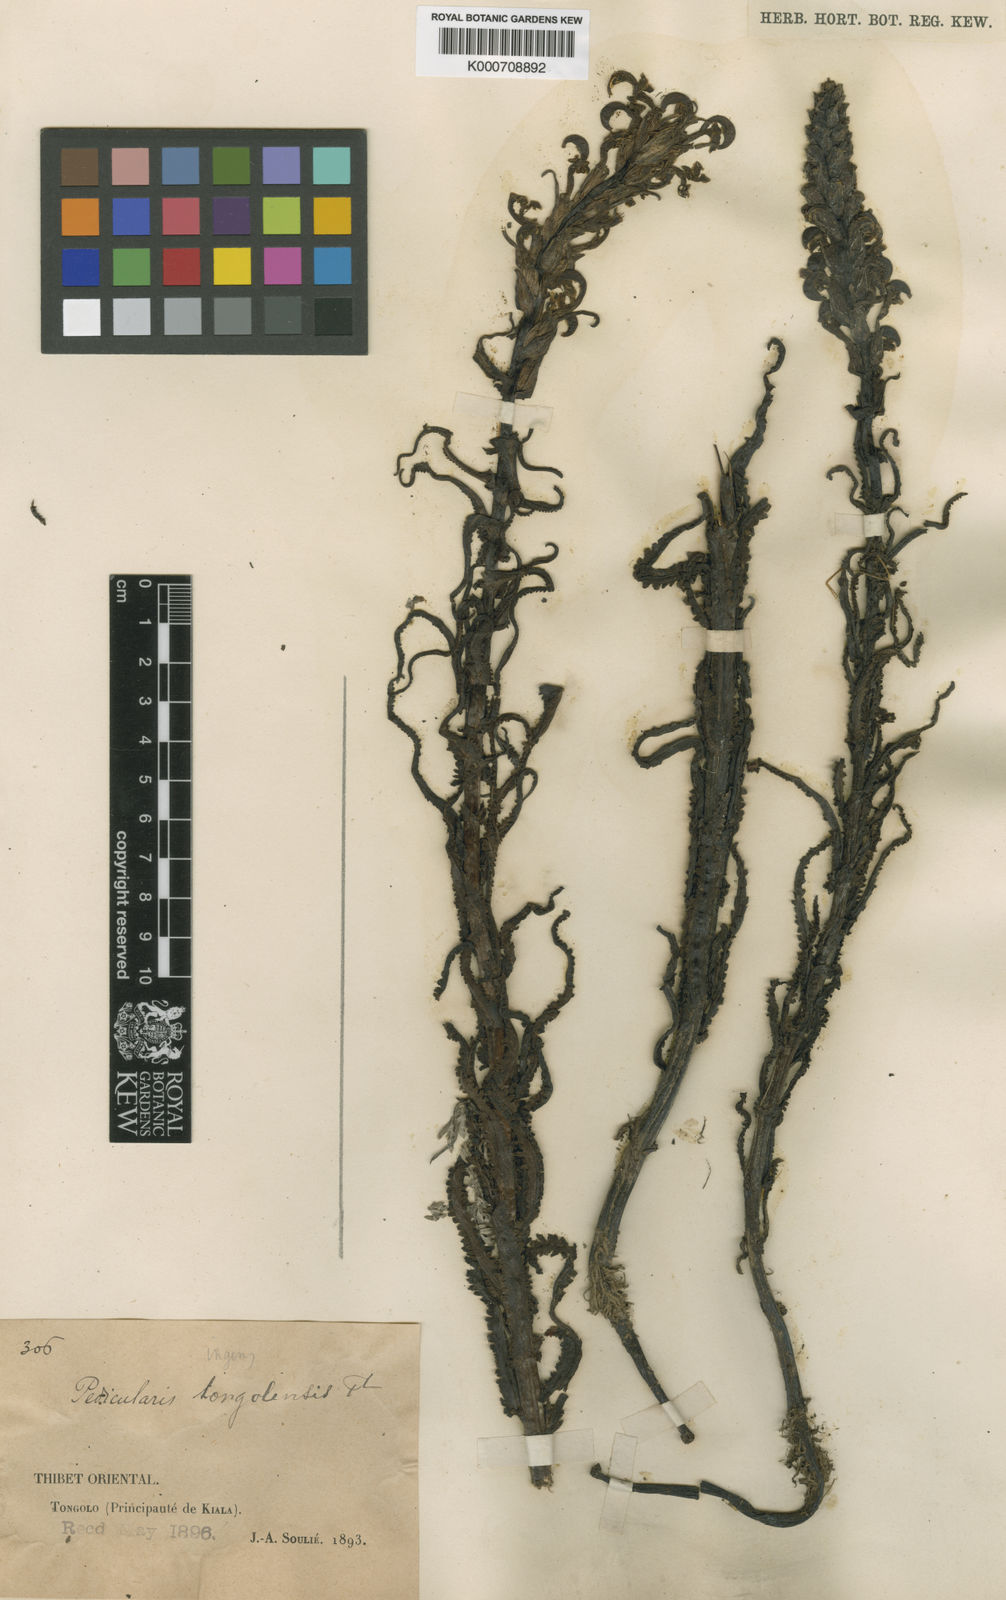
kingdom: Plantae
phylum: Tracheophyta
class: Magnoliopsida
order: Lamiales
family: Orobanchaceae
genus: Pedicularis
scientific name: Pedicularis tongolensis
